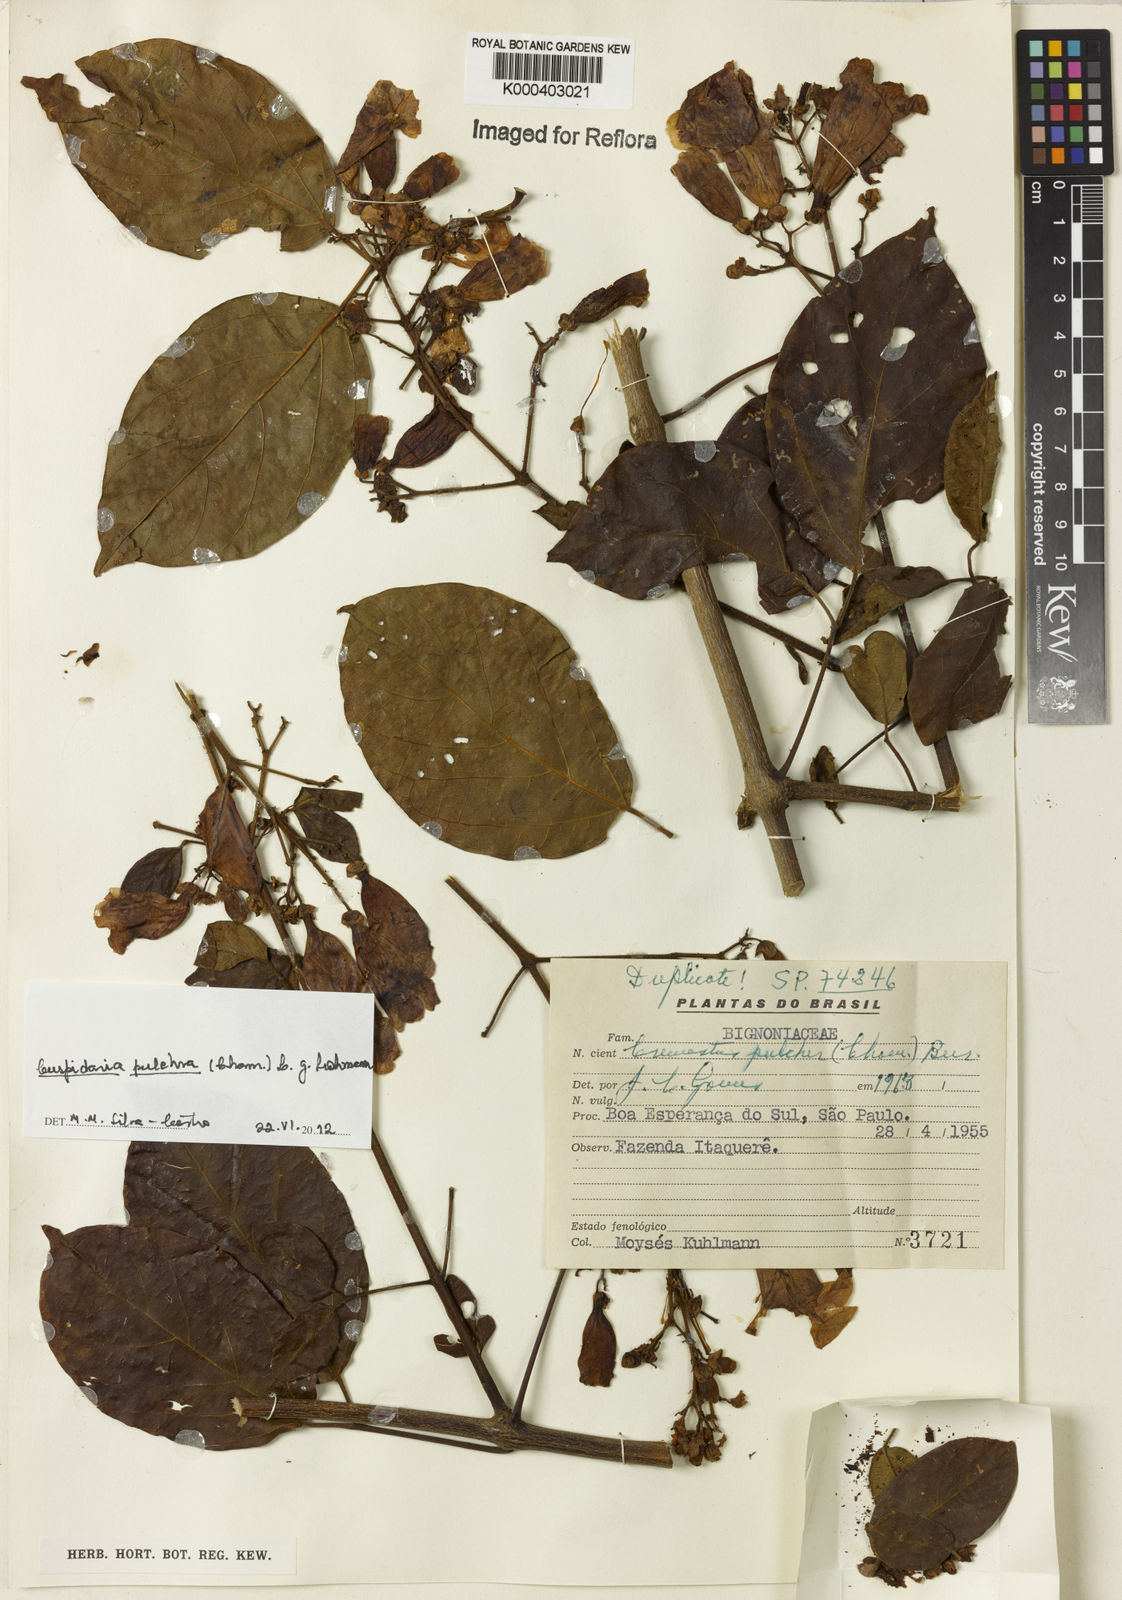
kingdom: Plantae
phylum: Tracheophyta
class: Magnoliopsida
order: Lamiales
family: Bignoniaceae
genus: Cuspidaria
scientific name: Cuspidaria pulchra
